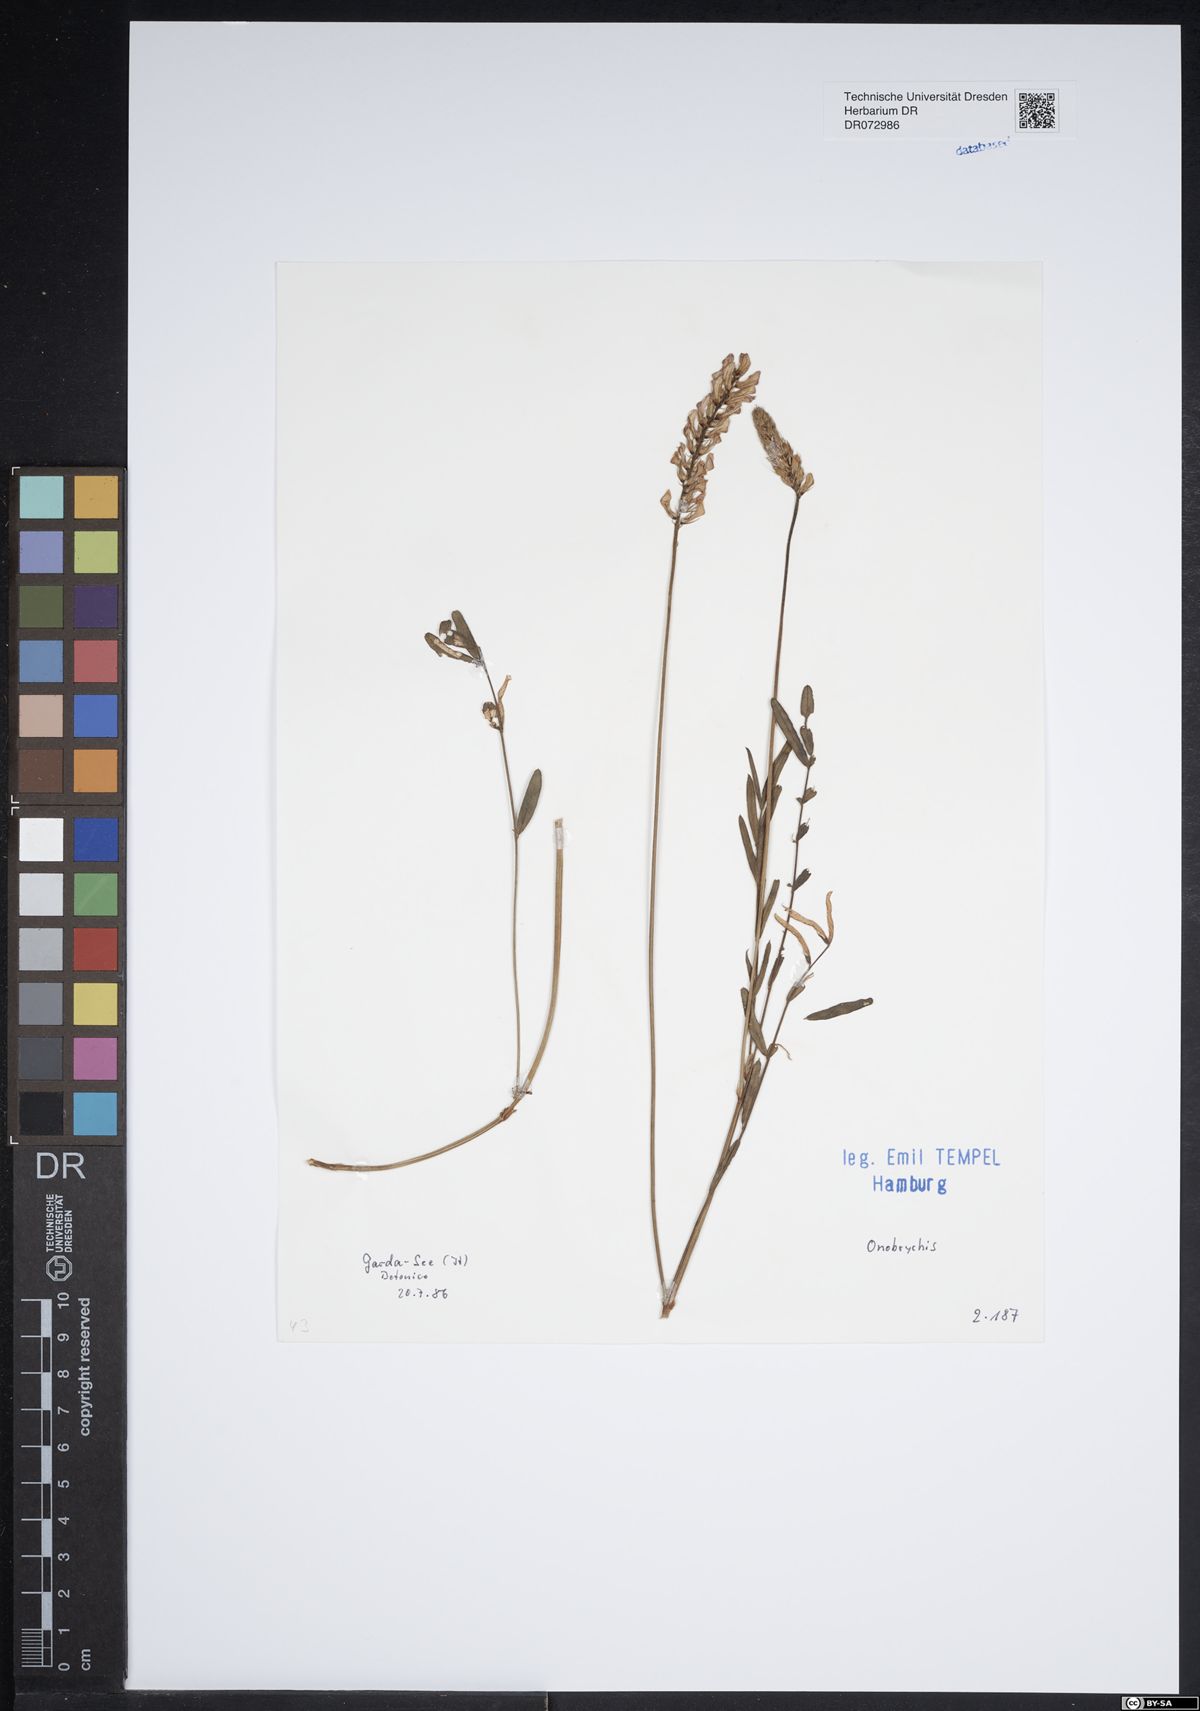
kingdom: Plantae
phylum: Tracheophyta
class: Magnoliopsida
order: Fabales
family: Fabaceae
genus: Onobrychis
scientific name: Onobrychis
